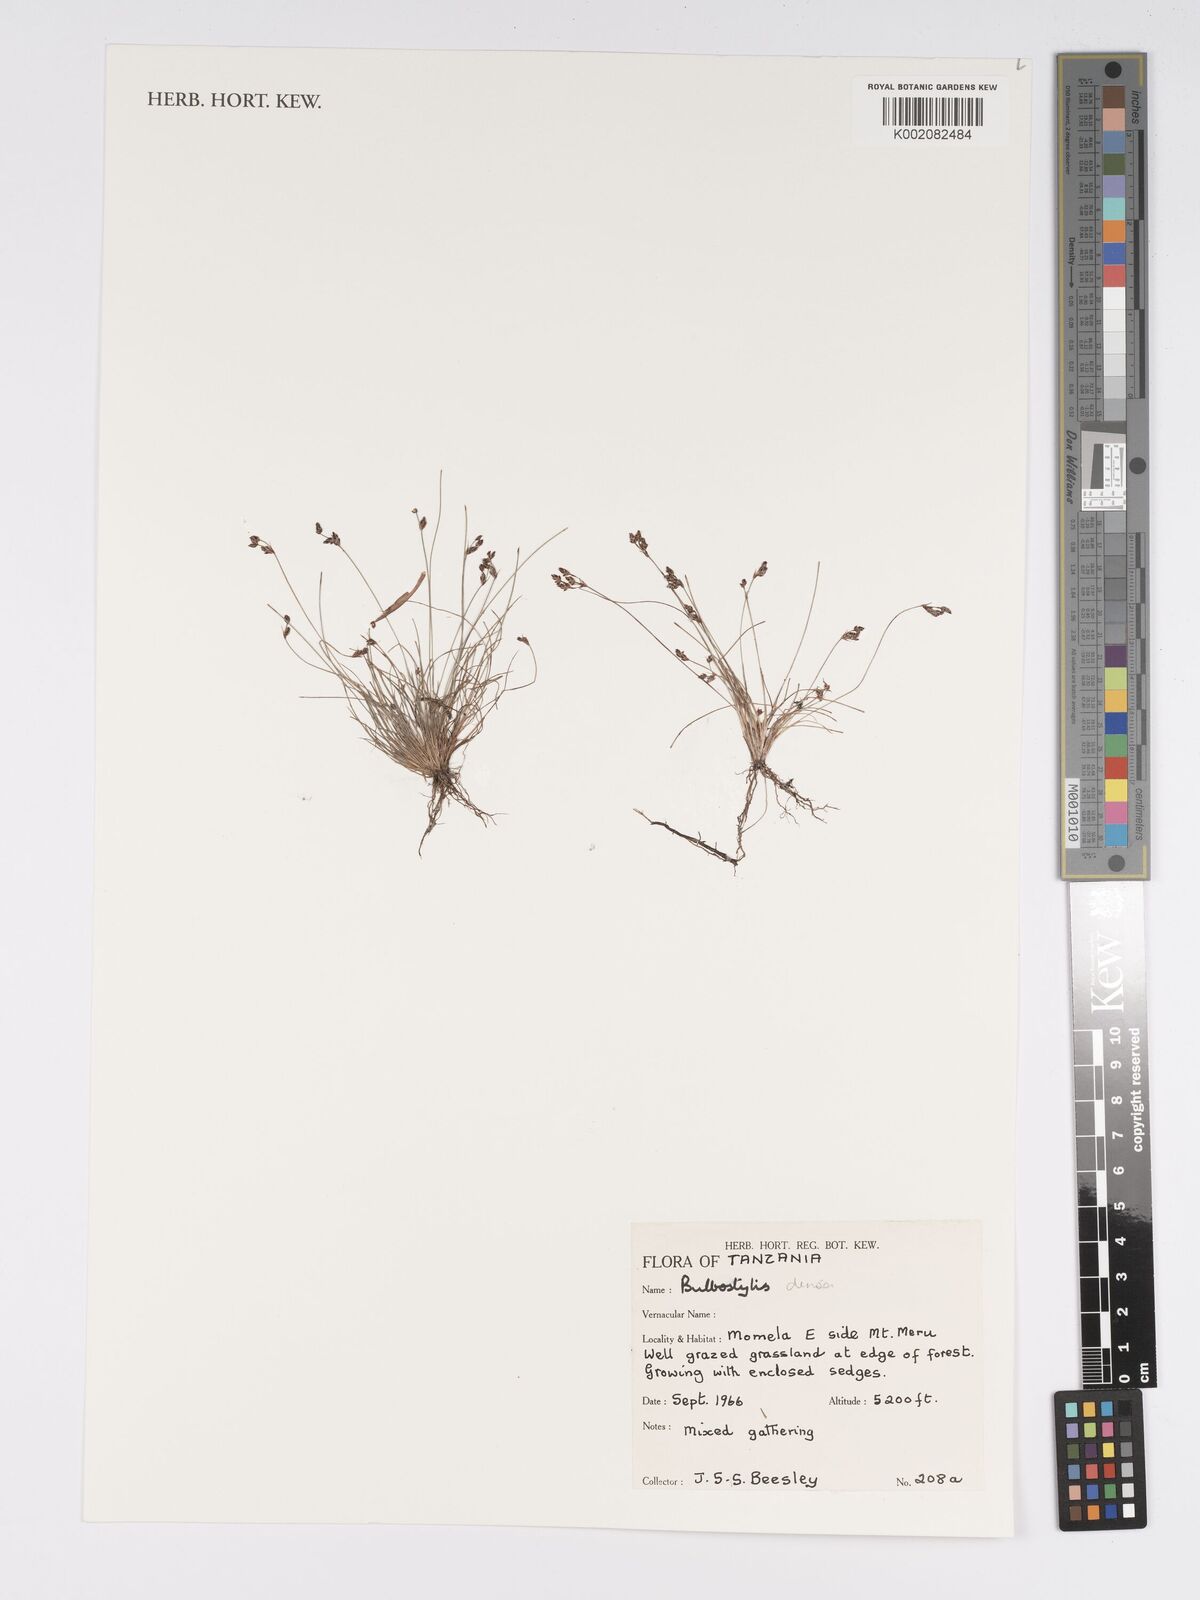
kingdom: Plantae
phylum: Tracheophyta
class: Liliopsida
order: Poales
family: Cyperaceae
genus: Bulbostylis
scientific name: Bulbostylis densa
